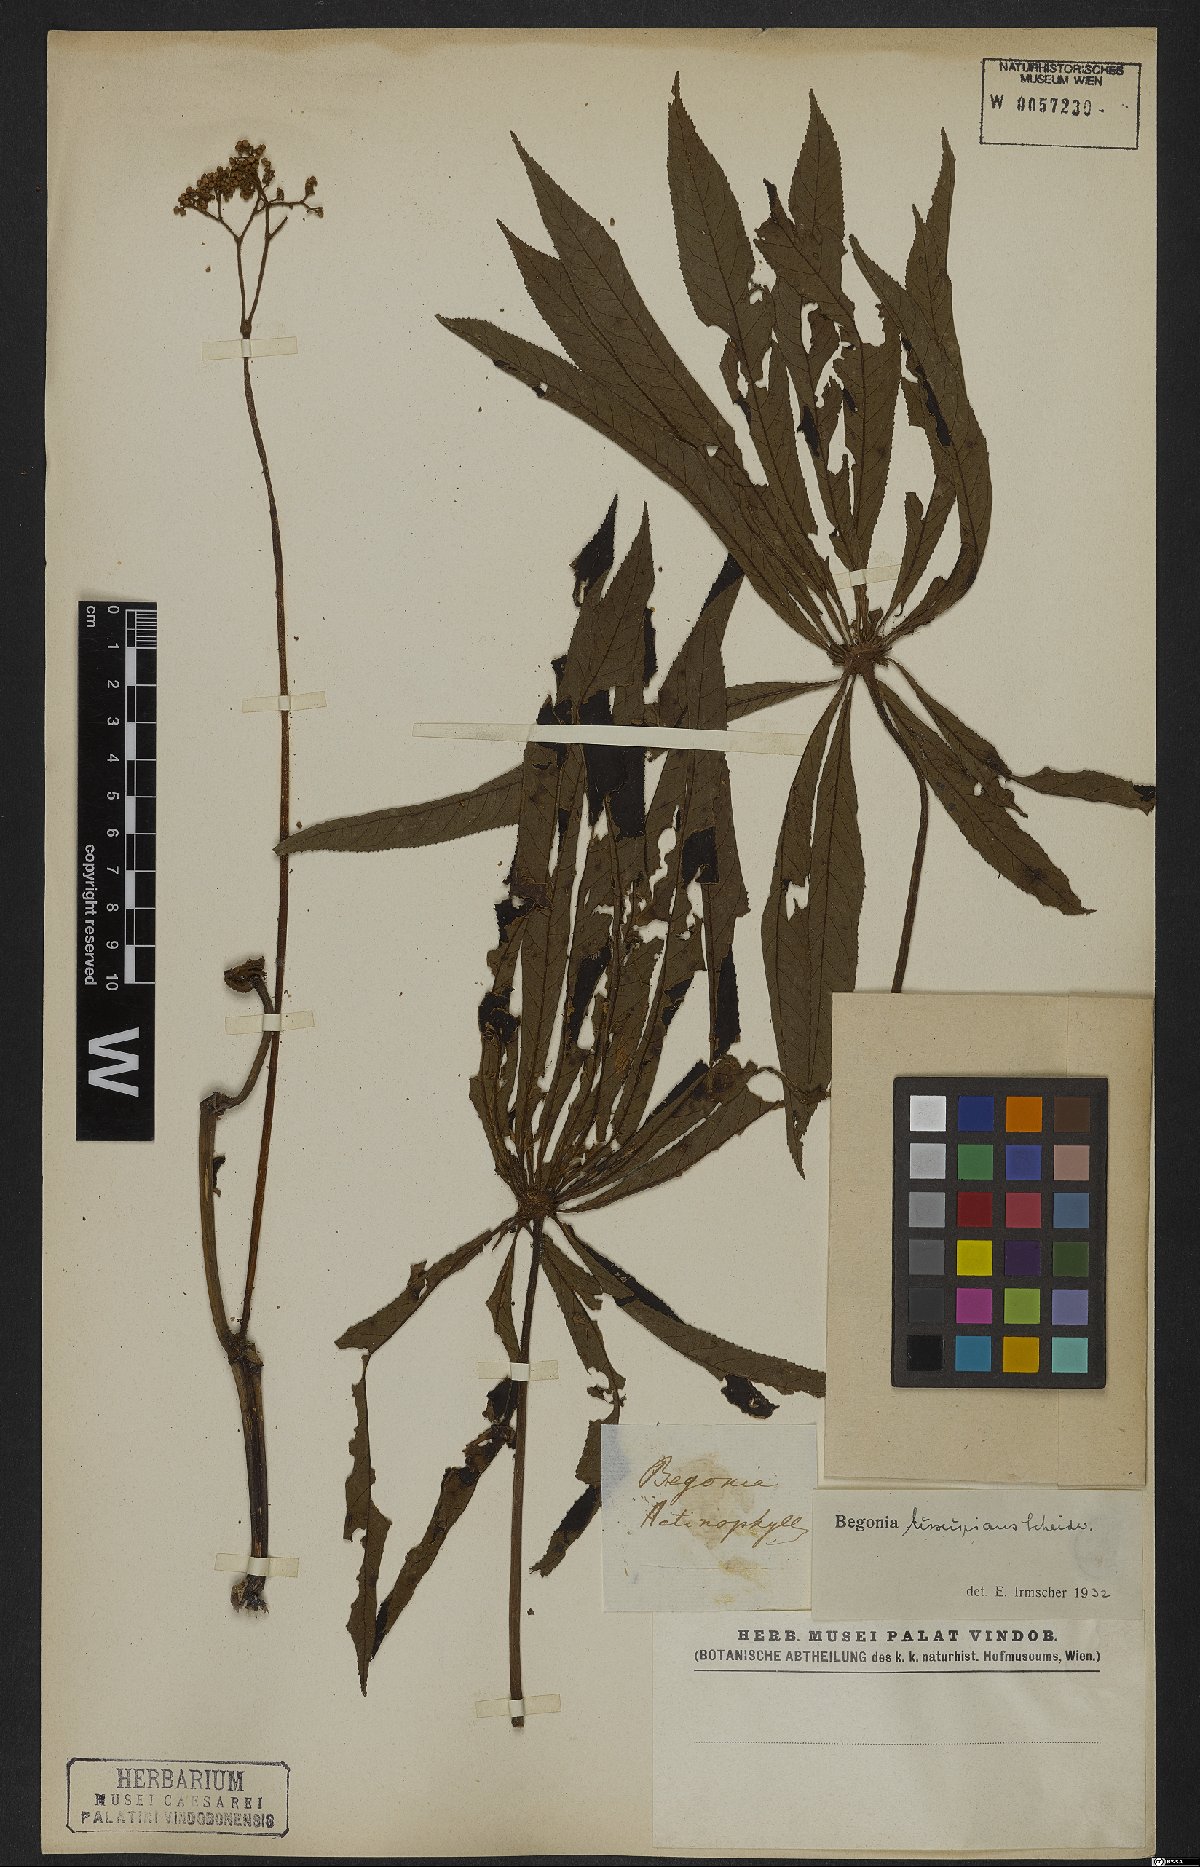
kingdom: Plantae
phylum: Tracheophyta
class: Magnoliopsida
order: Cucurbitales
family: Begoniaceae
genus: Begonia
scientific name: Begonia luxurians
